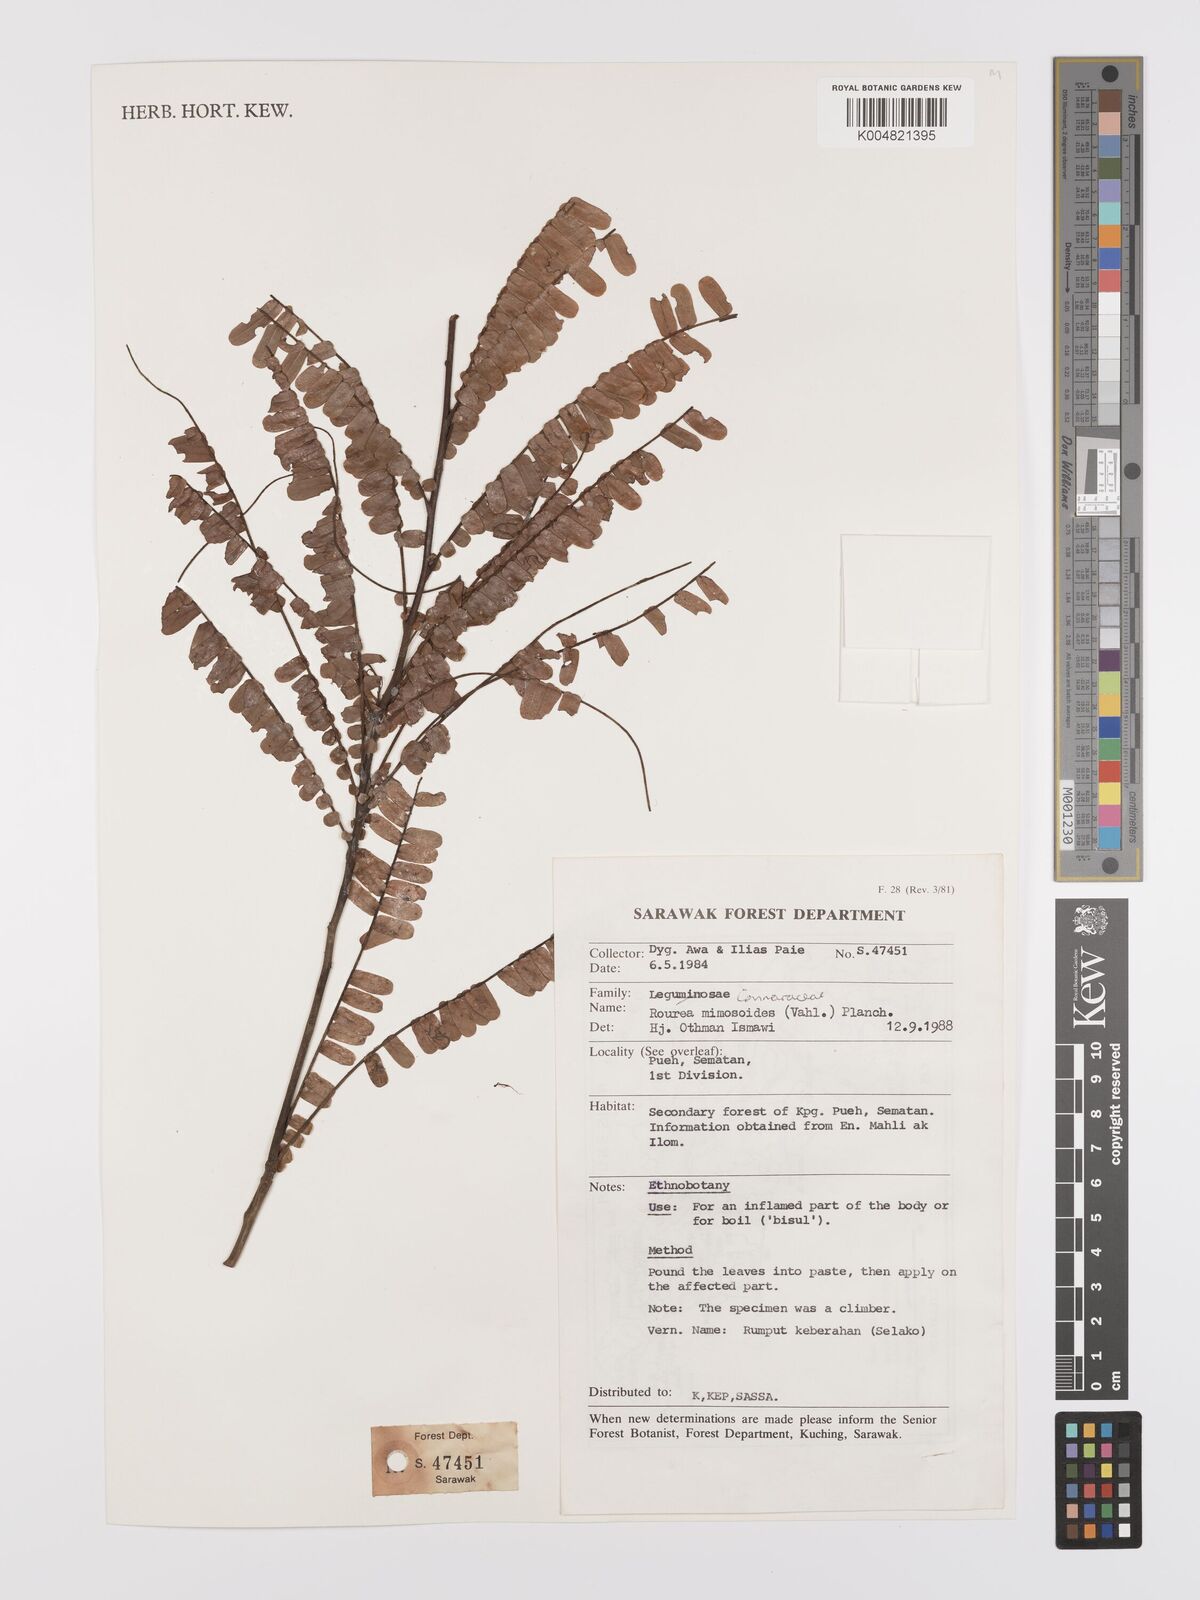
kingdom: Plantae
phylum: Tracheophyta
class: Magnoliopsida
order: Oxalidales
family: Connaraceae
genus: Rourea
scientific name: Rourea mimosoides
